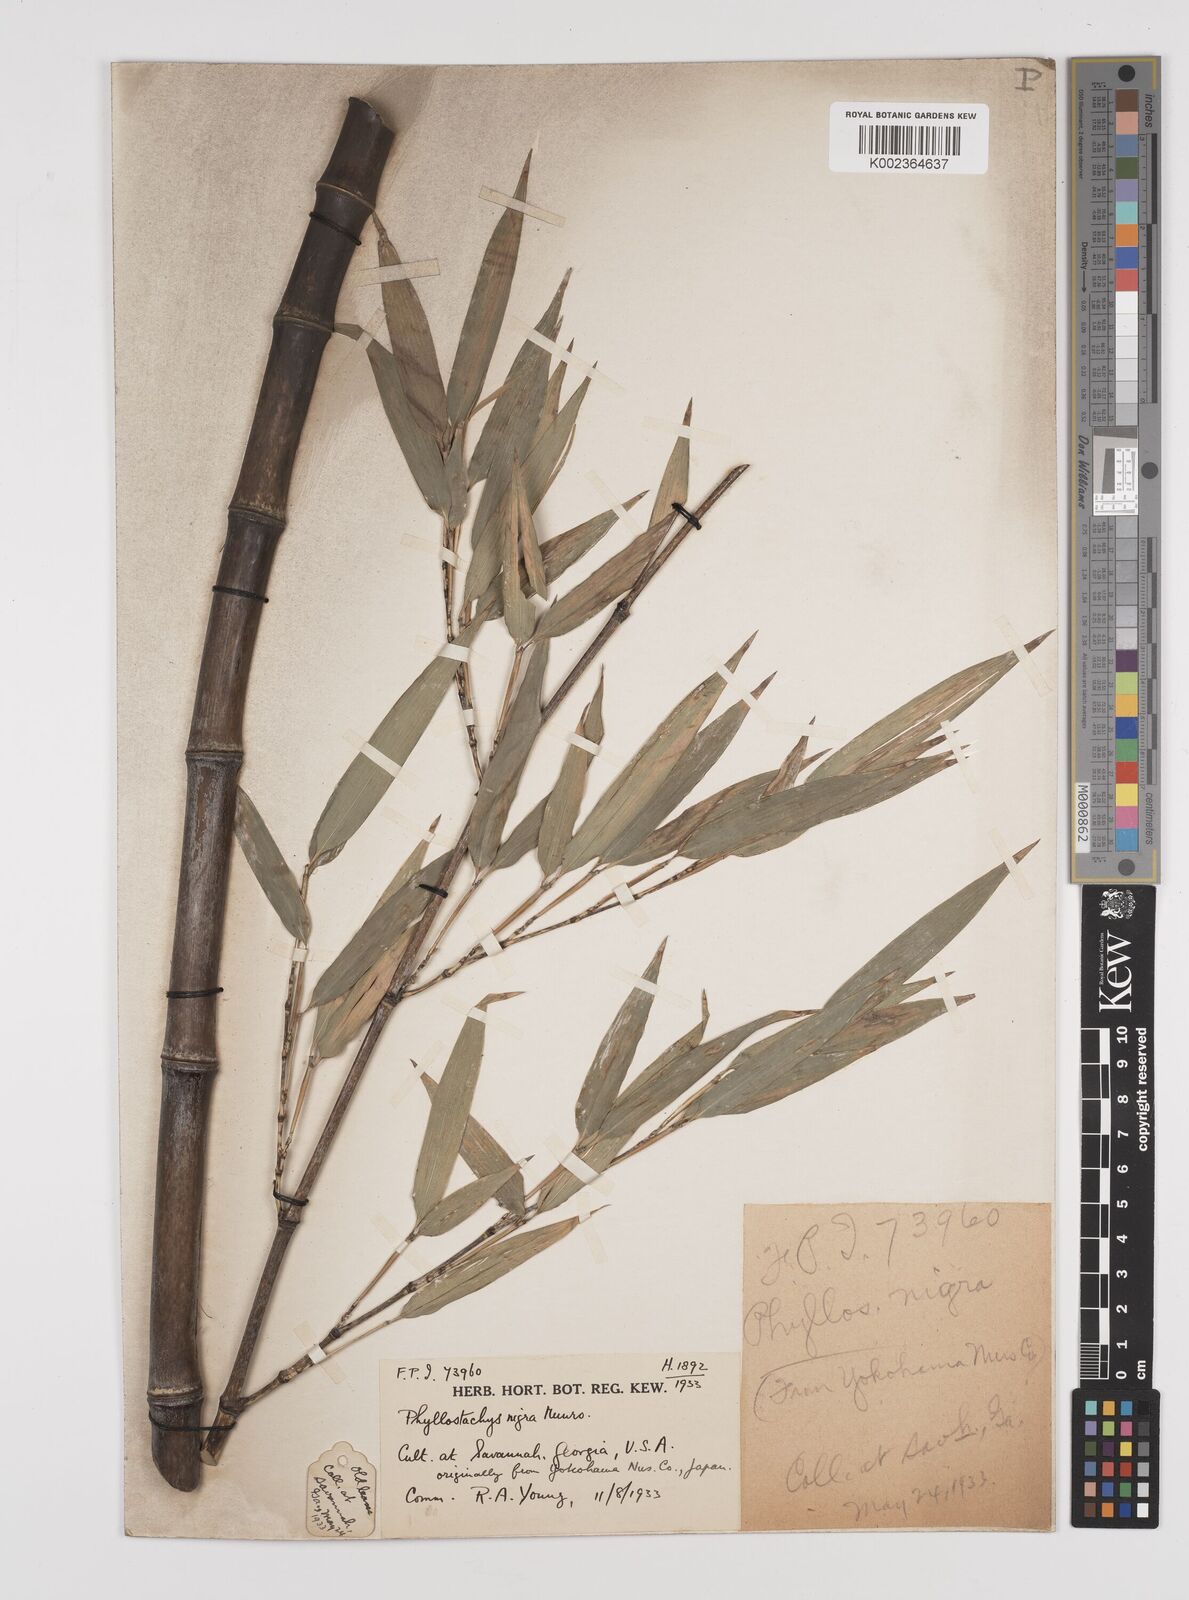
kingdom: Plantae
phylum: Tracheophyta
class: Liliopsida
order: Poales
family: Poaceae
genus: Phyllostachys
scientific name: Phyllostachys nigra
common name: Black bamboo
